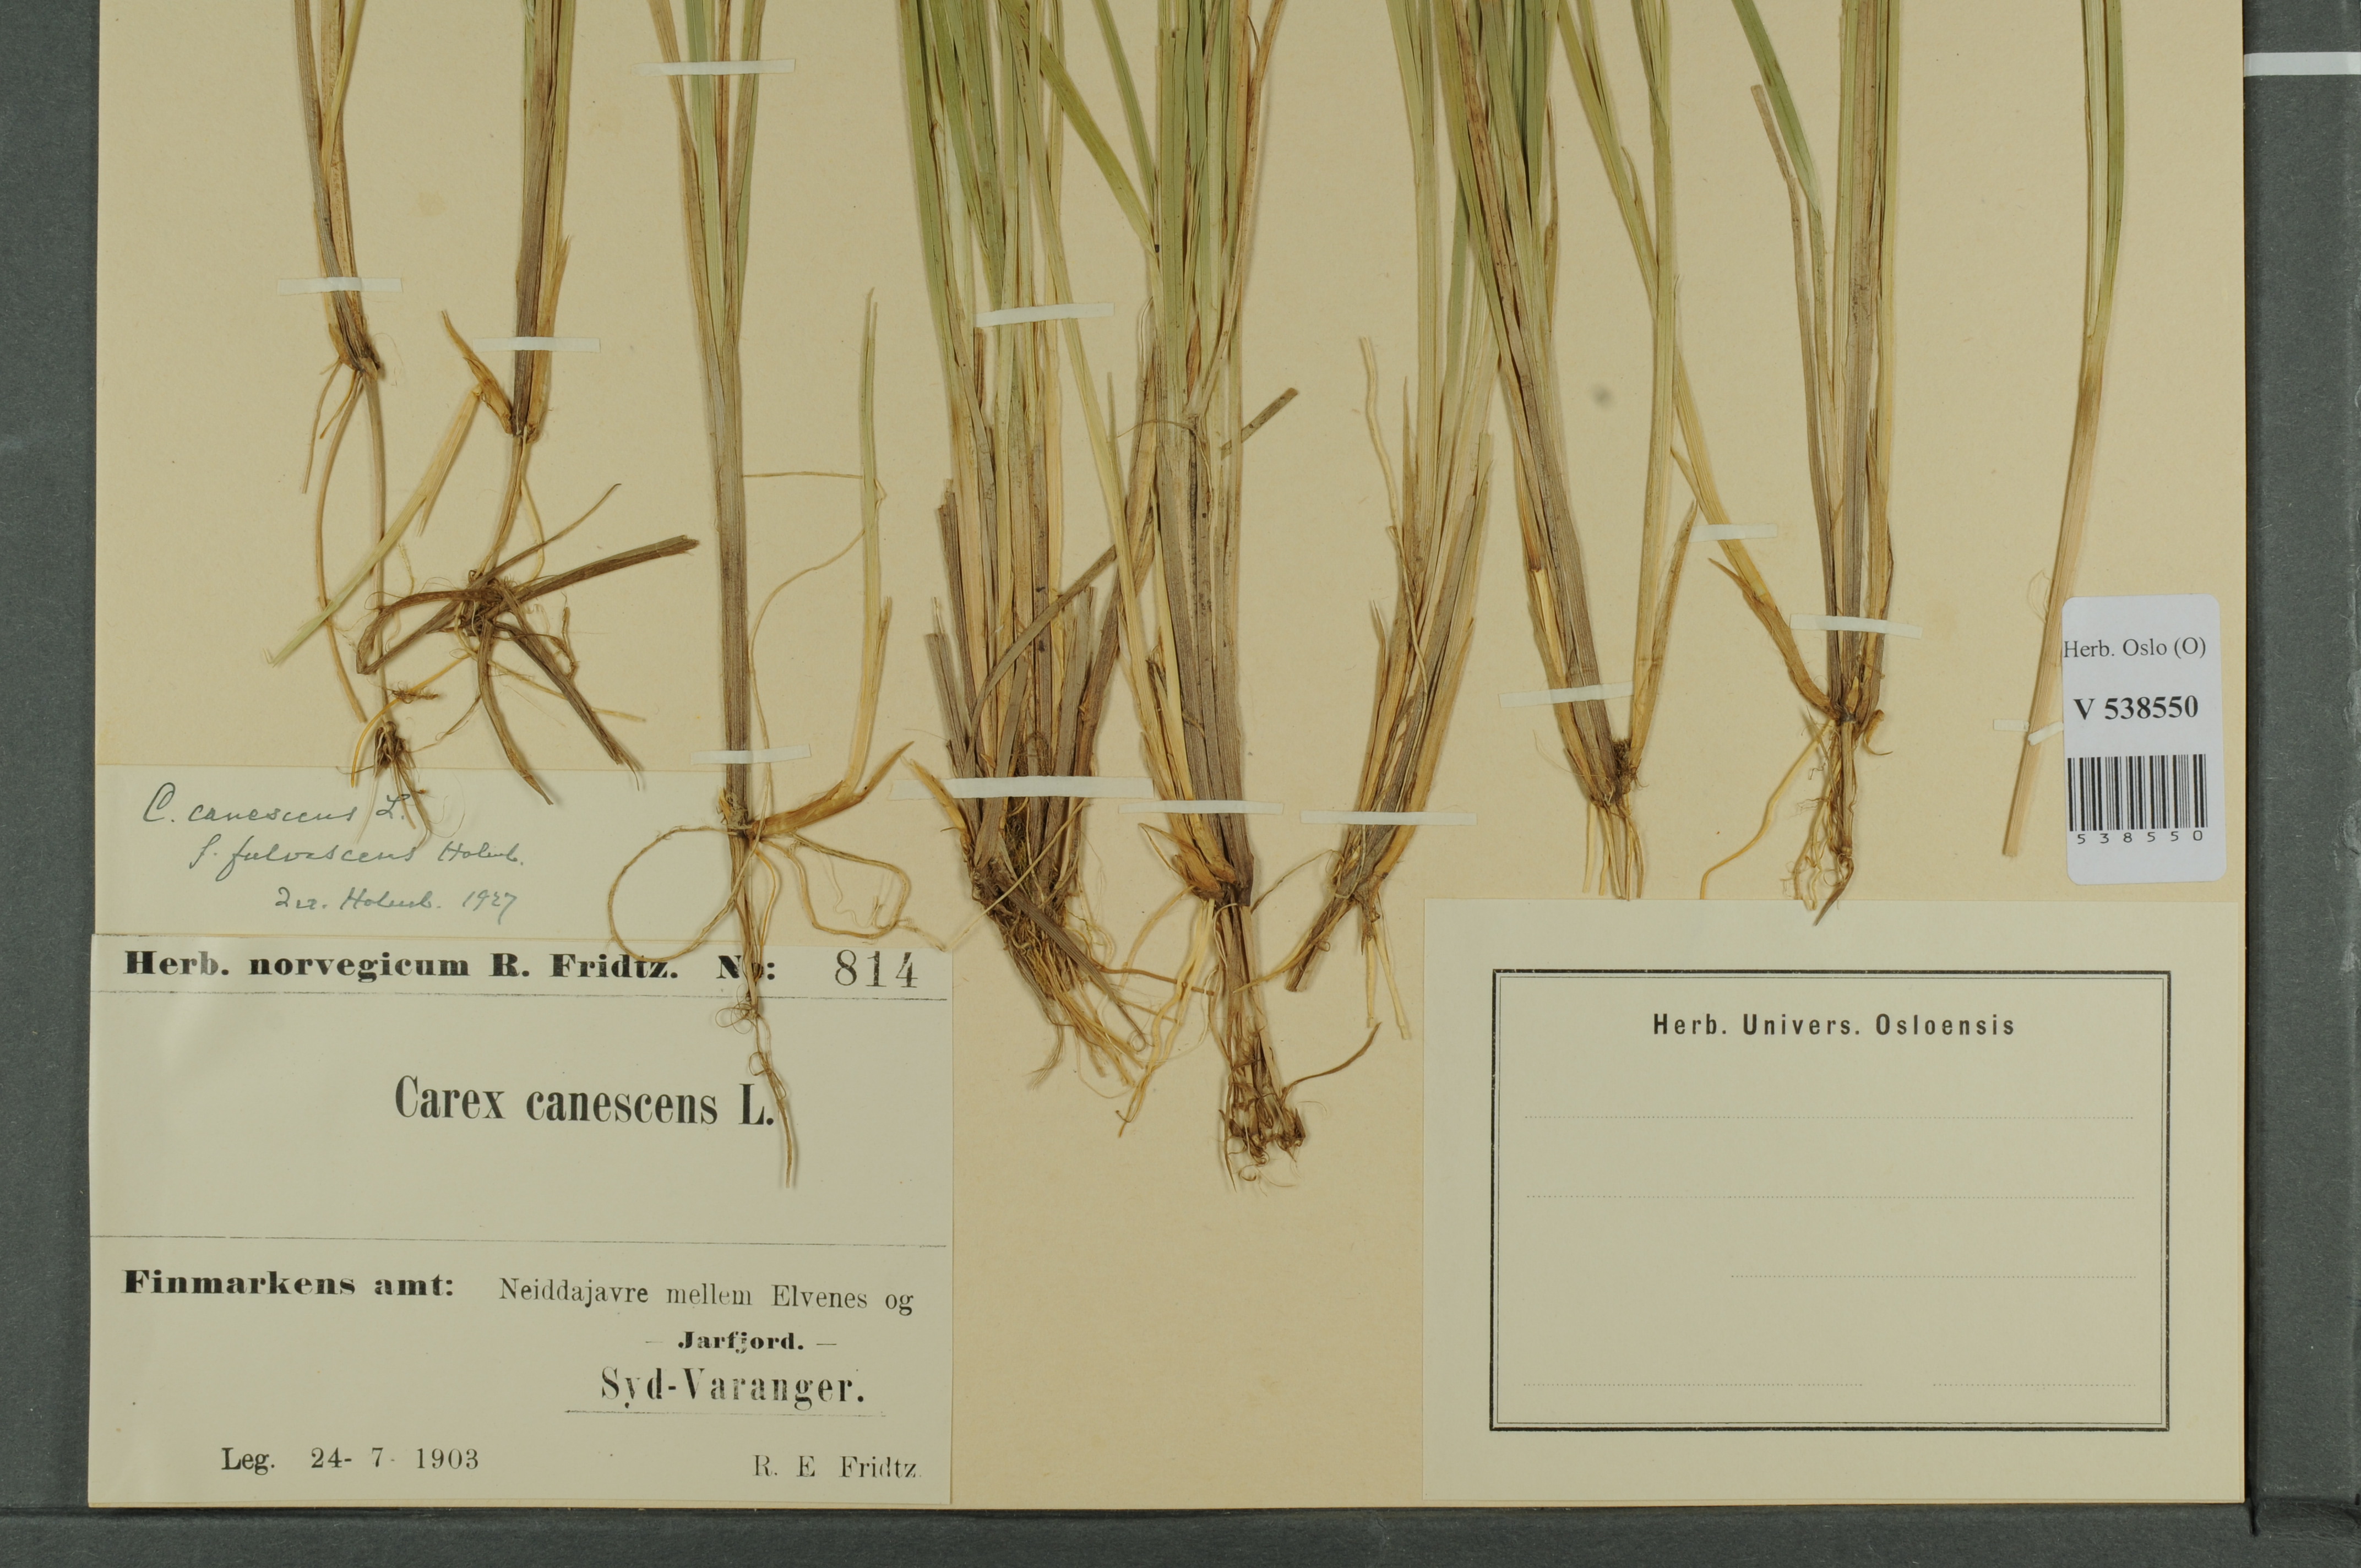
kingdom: Plantae
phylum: Tracheophyta
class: Liliopsida
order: Poales
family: Cyperaceae
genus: Carex
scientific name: Carex canescens
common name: White sedge
